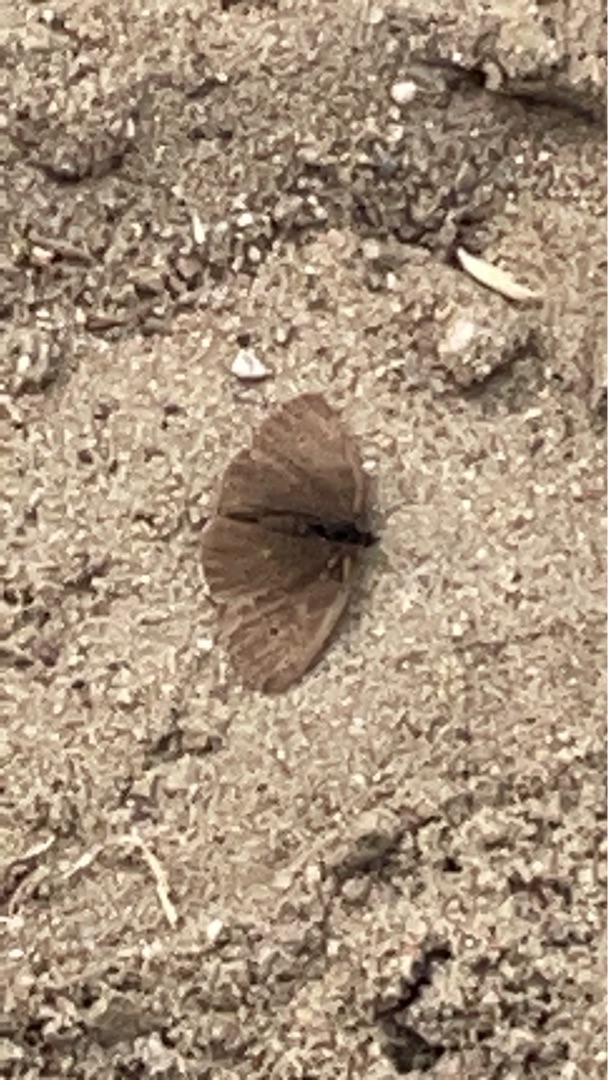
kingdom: Animalia
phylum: Arthropoda
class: Insecta
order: Lepidoptera
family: Nymphalidae
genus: Aphantopus
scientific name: Aphantopus hyperantus
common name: Engrandøje
